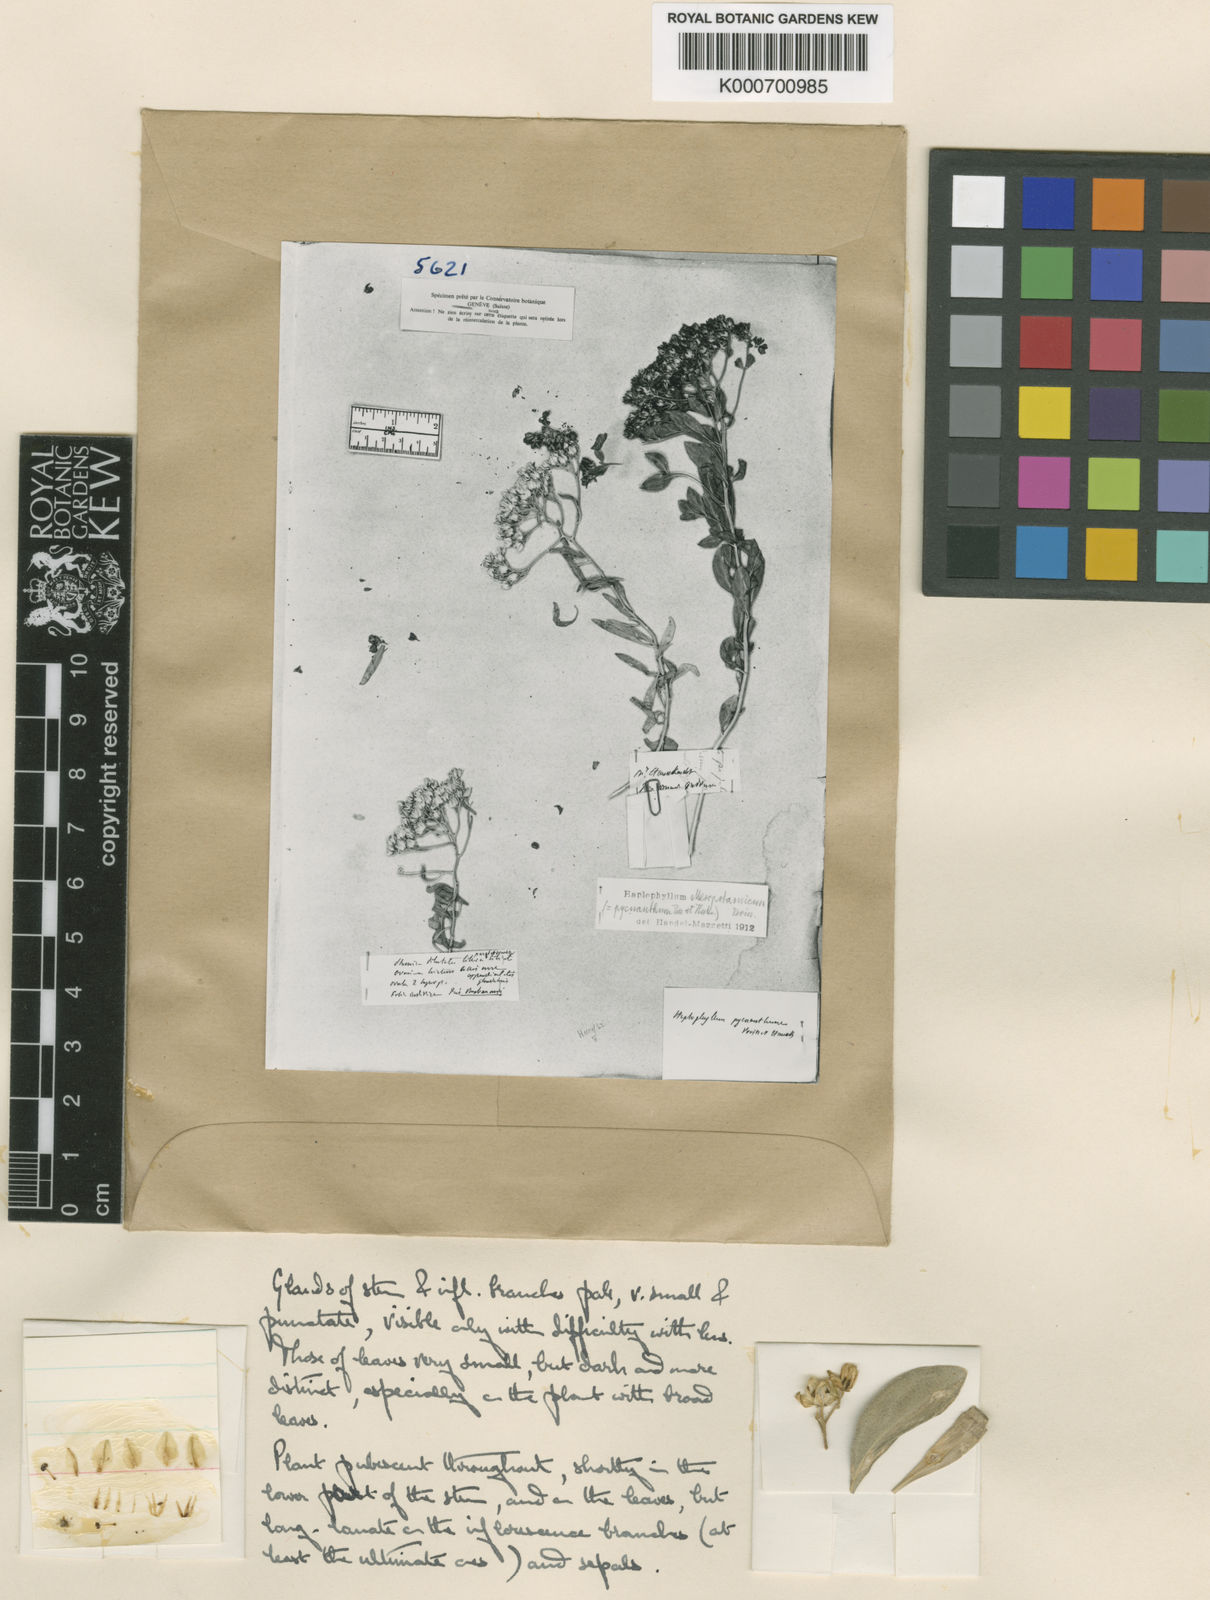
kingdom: Plantae
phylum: Tracheophyta
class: Magnoliopsida
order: Sapindales
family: Rutaceae
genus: Haplophyllum
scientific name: Haplophyllum buxbaumii
